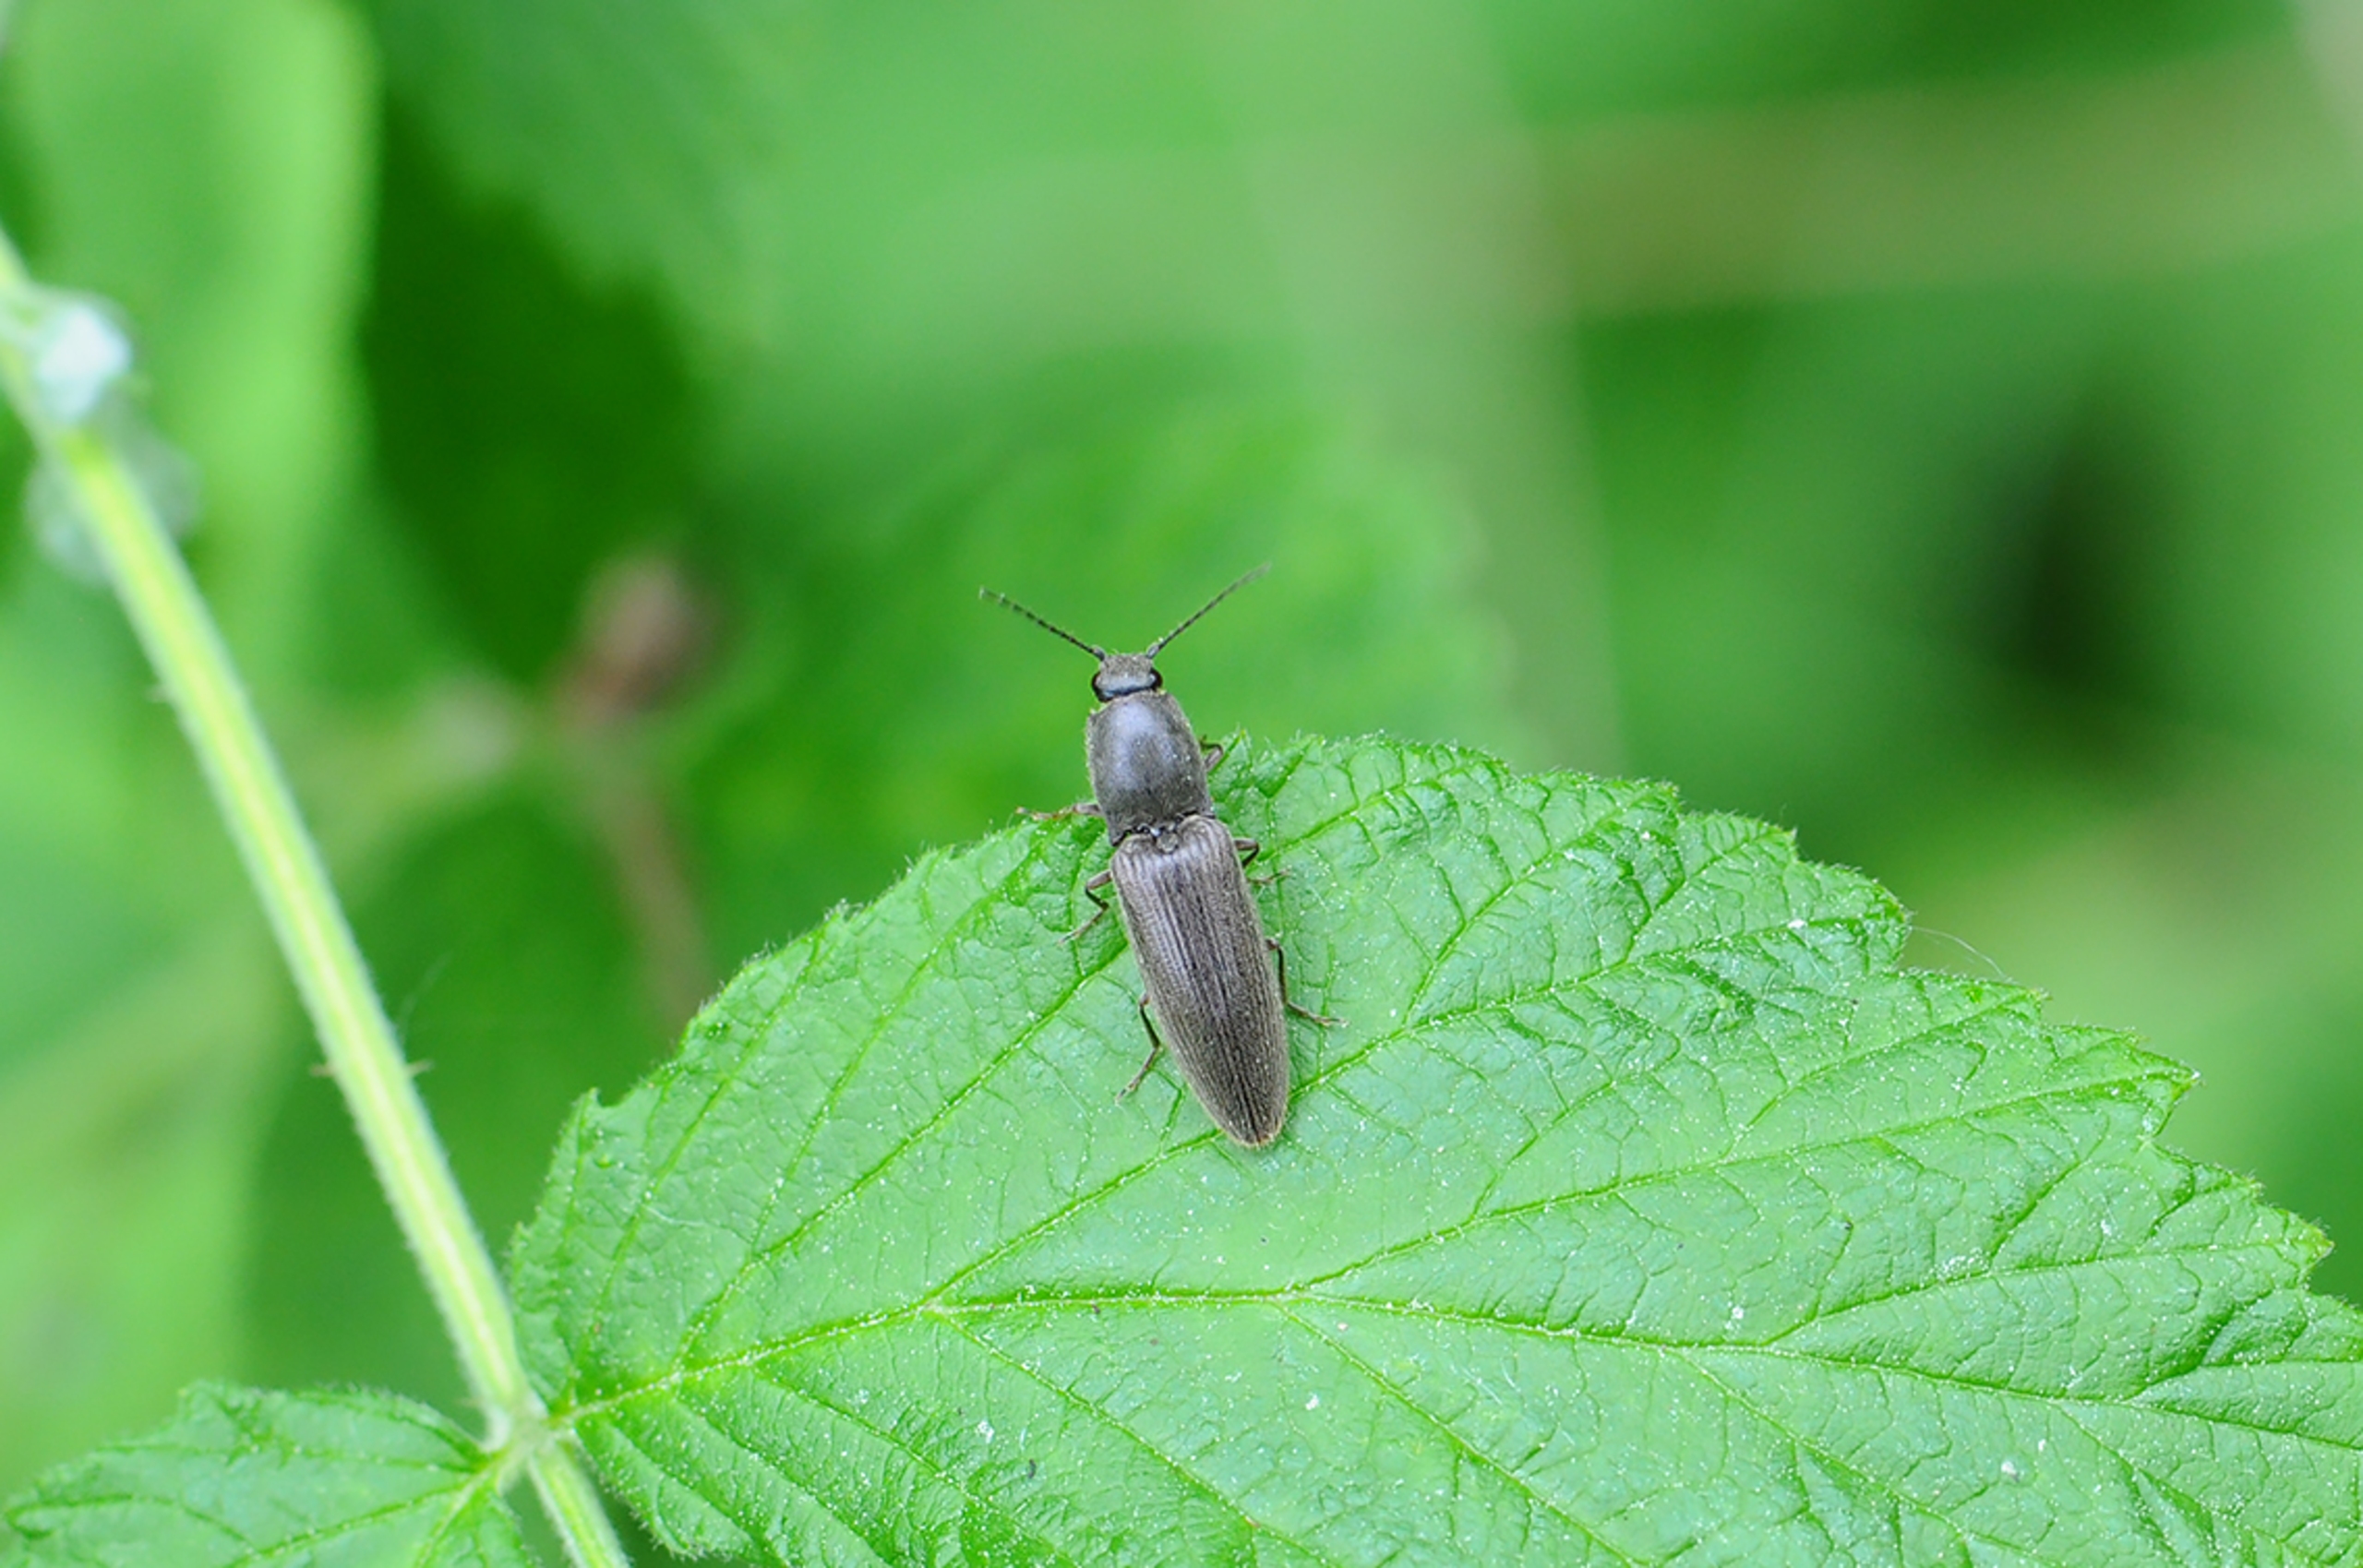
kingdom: Animalia
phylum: Arthropoda
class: Insecta
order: Coleoptera
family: Elateridae
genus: Athous
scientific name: Athous haemorrhoidalis
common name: Rødhalet busksmælder
